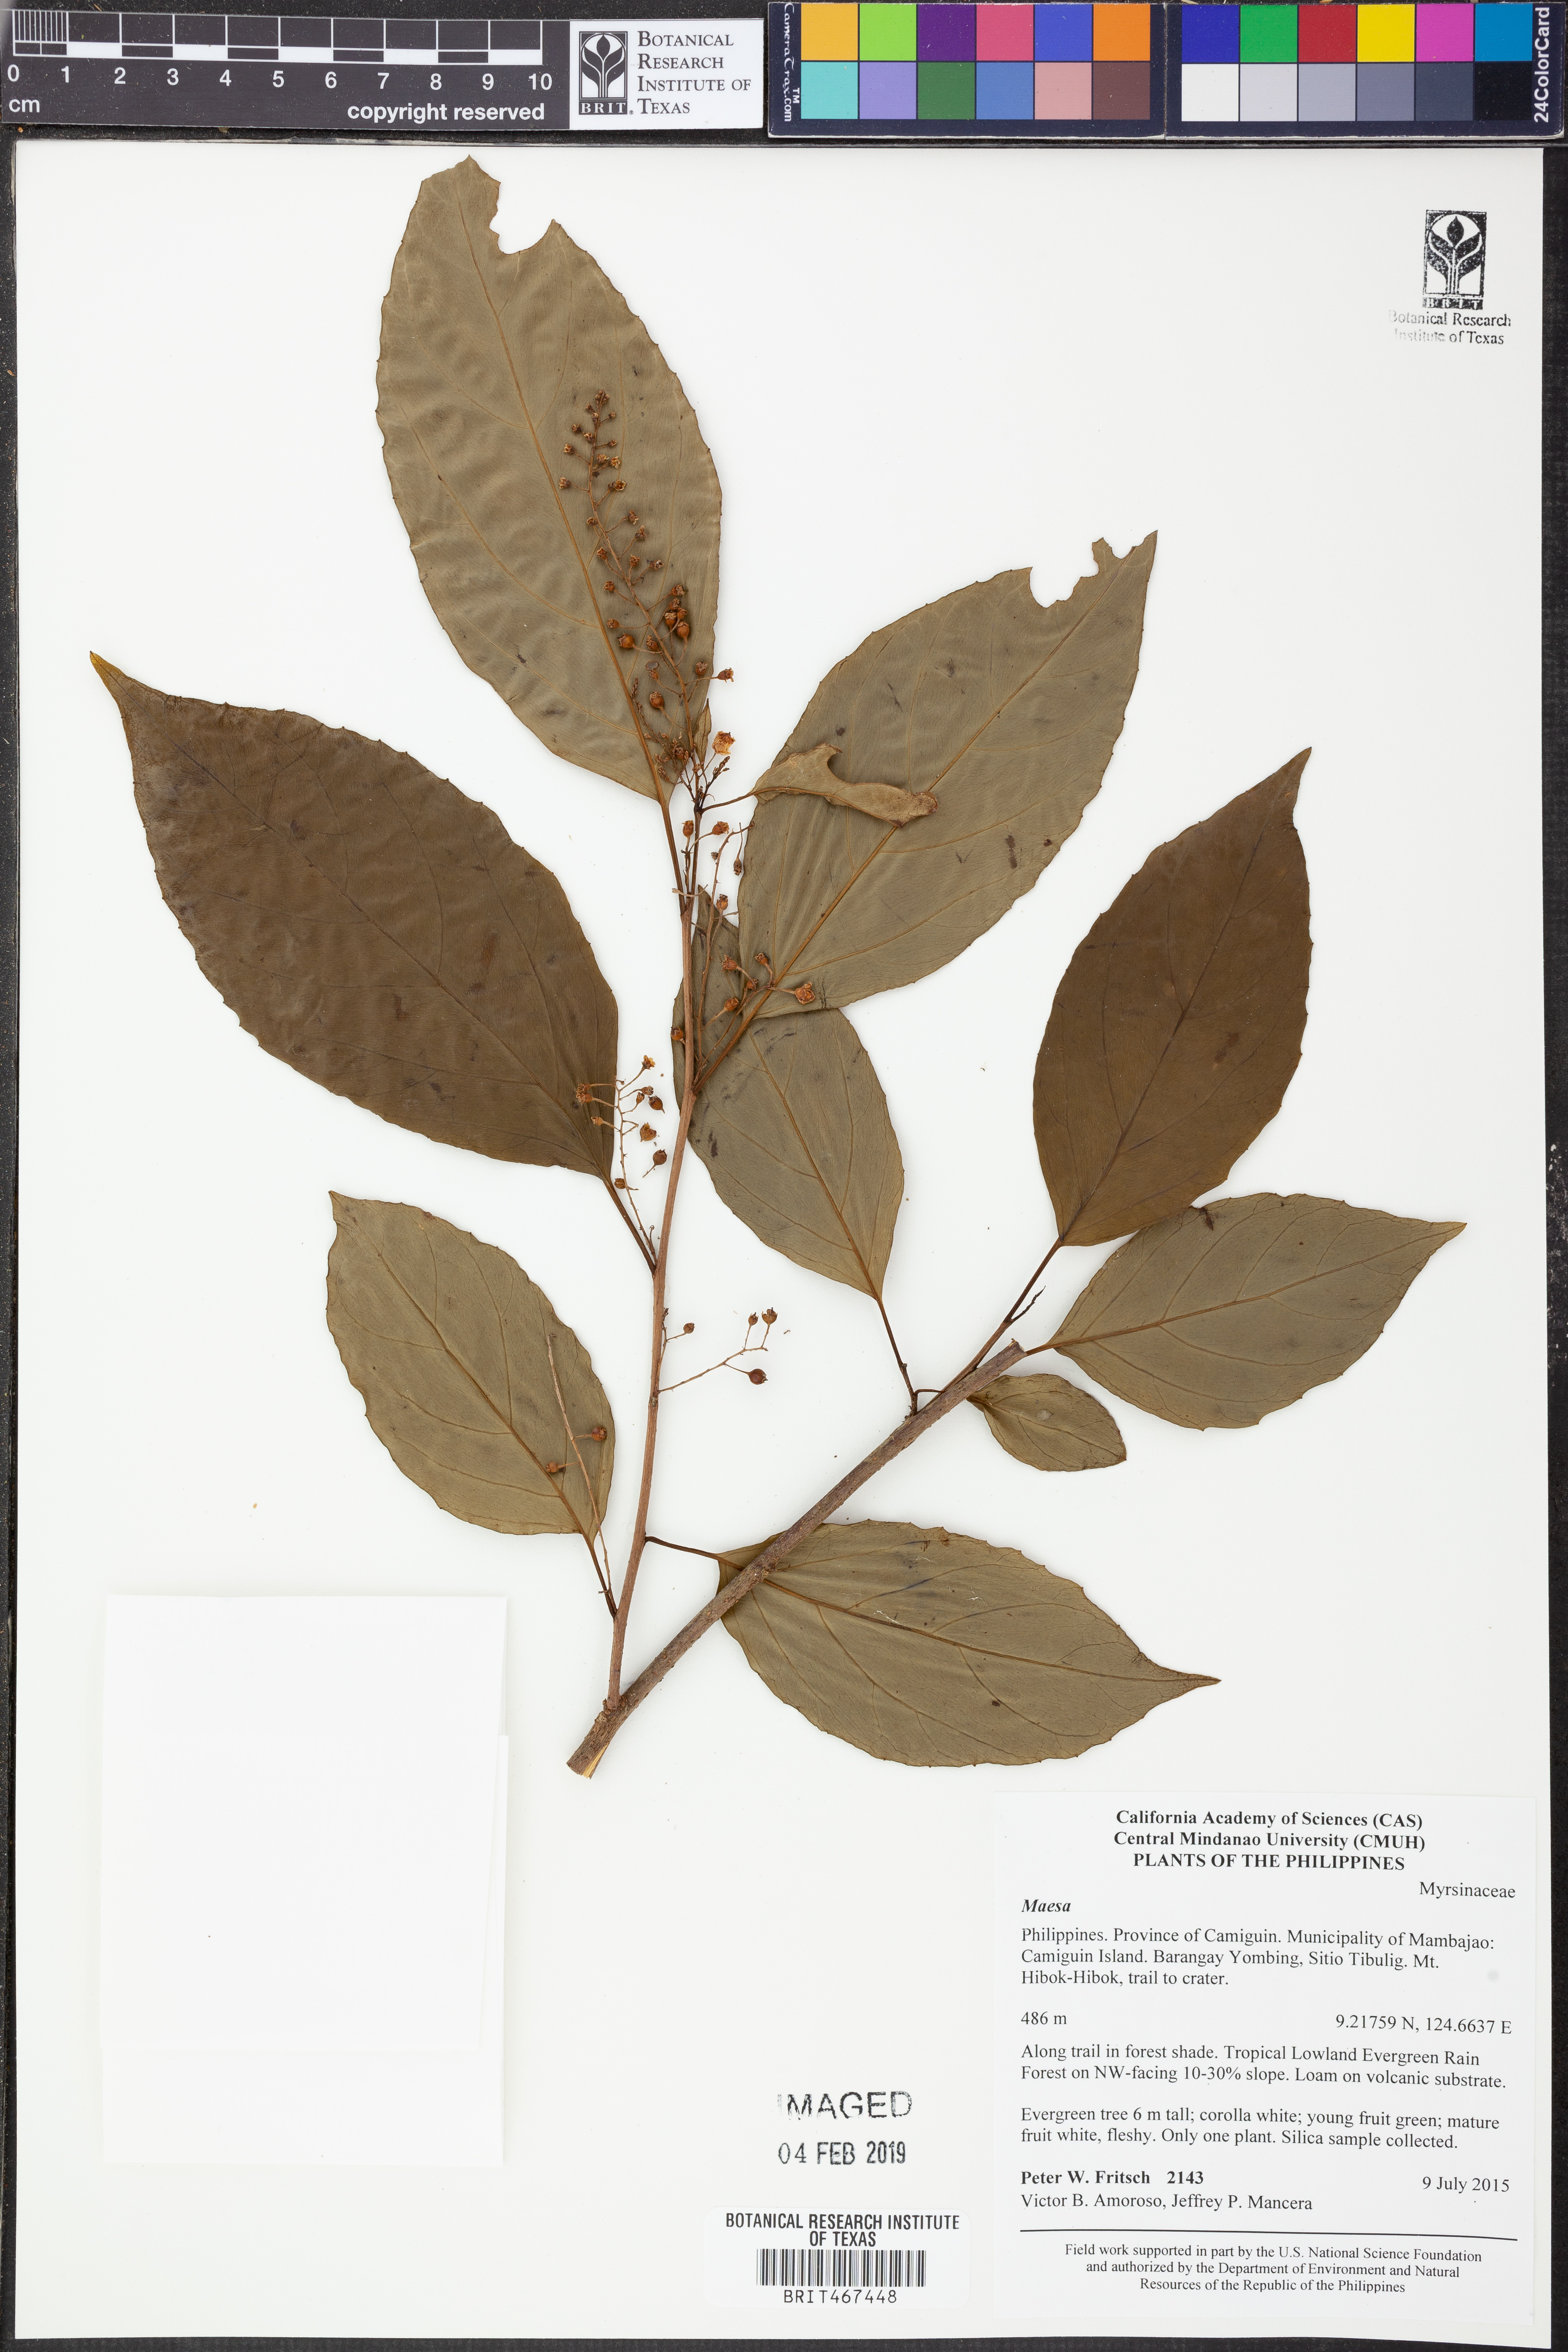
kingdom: Plantae
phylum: Tracheophyta
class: Magnoliopsida
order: Ericales
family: Primulaceae
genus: Maesa
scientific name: Maesa
